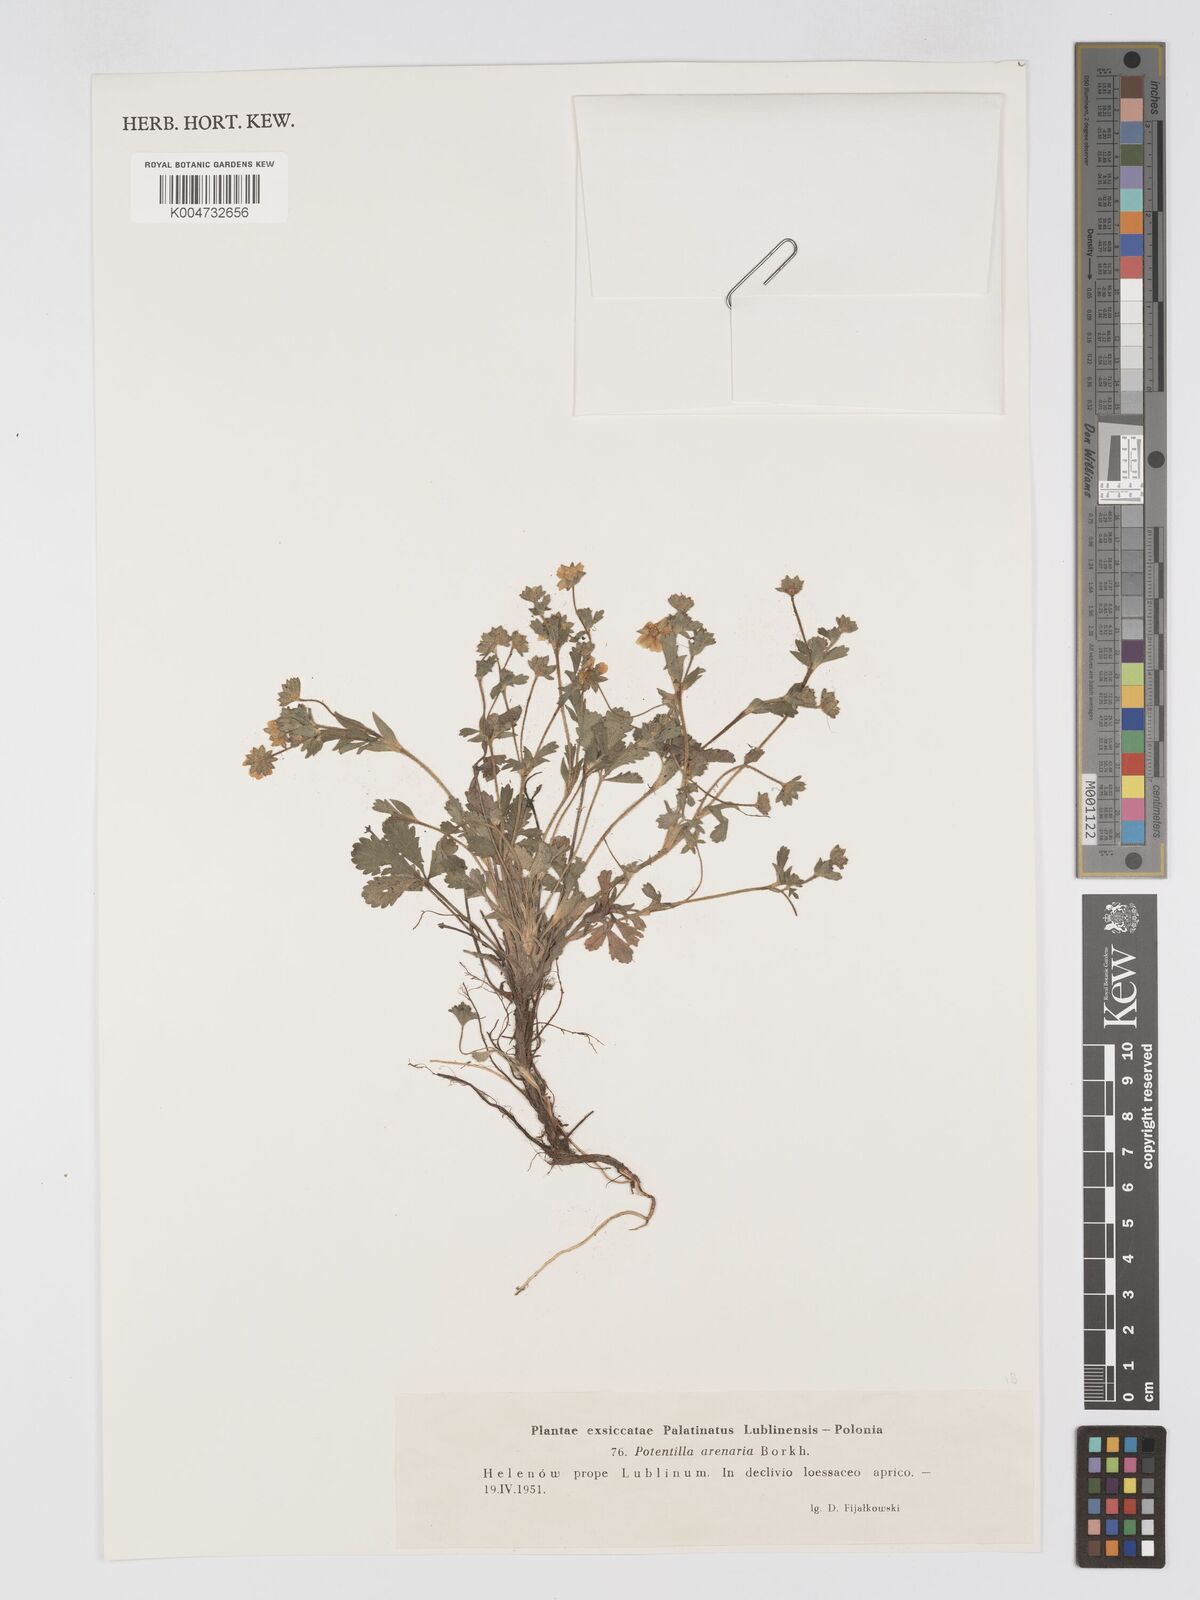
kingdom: Plantae
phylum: Tracheophyta
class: Magnoliopsida
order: Rosales
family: Rosaceae
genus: Potentilla
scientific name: Potentilla cinerea
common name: Ashy cinquefoil
